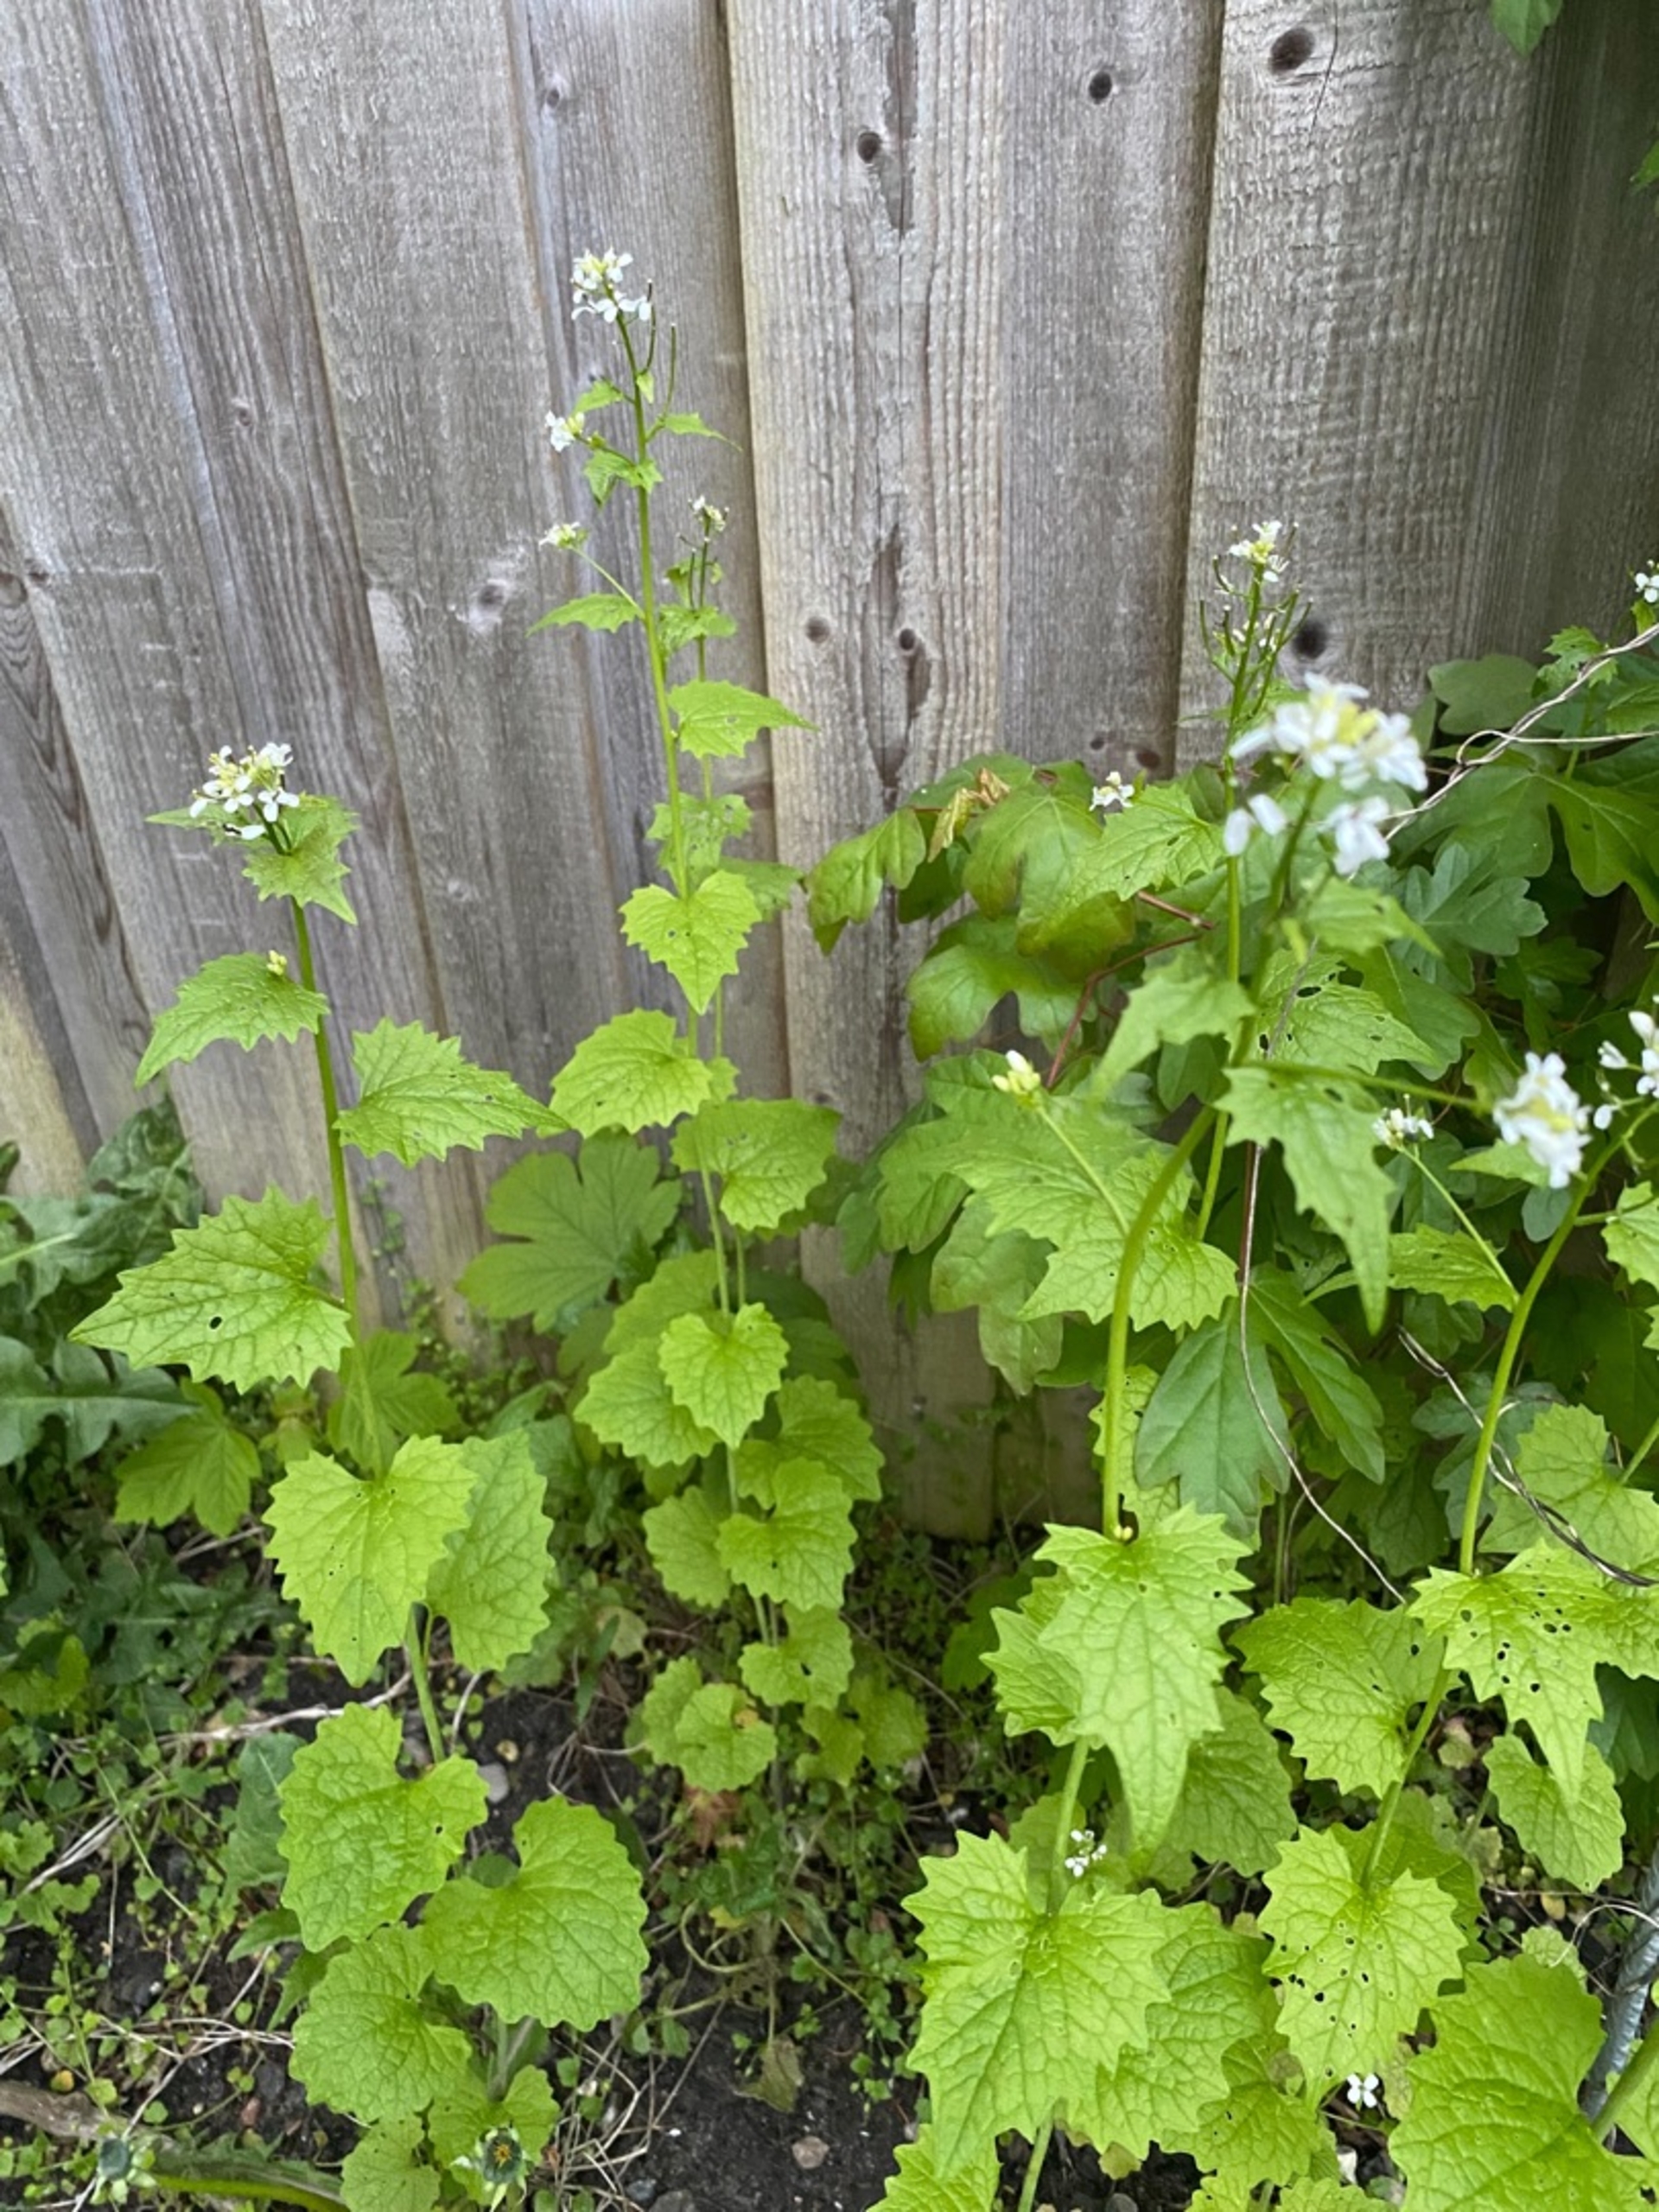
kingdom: Plantae
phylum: Tracheophyta
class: Magnoliopsida
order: Brassicales
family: Brassicaceae
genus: Alliaria
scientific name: Alliaria petiolata
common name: Løgkarse
